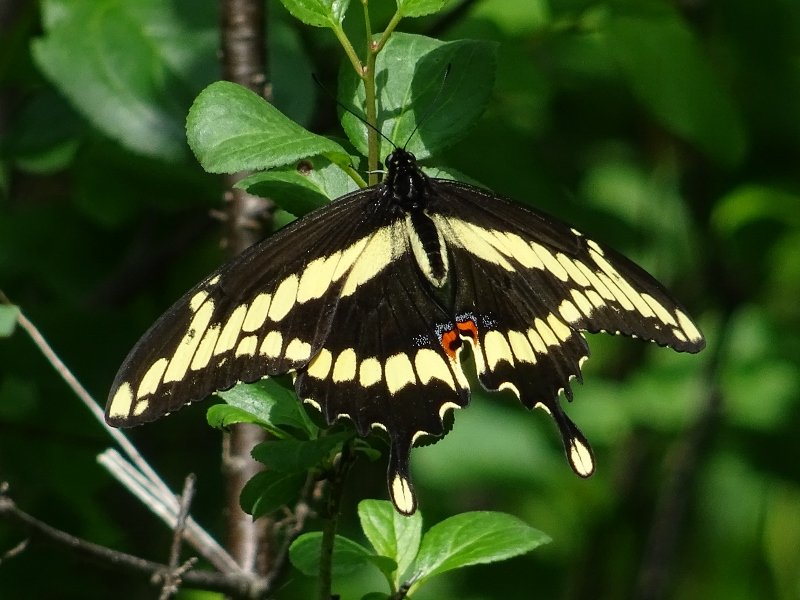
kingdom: Animalia
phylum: Arthropoda
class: Insecta
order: Lepidoptera
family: Papilionidae
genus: Papilio
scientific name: Papilio cresphontes
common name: Eastern Giant Swallowtail
